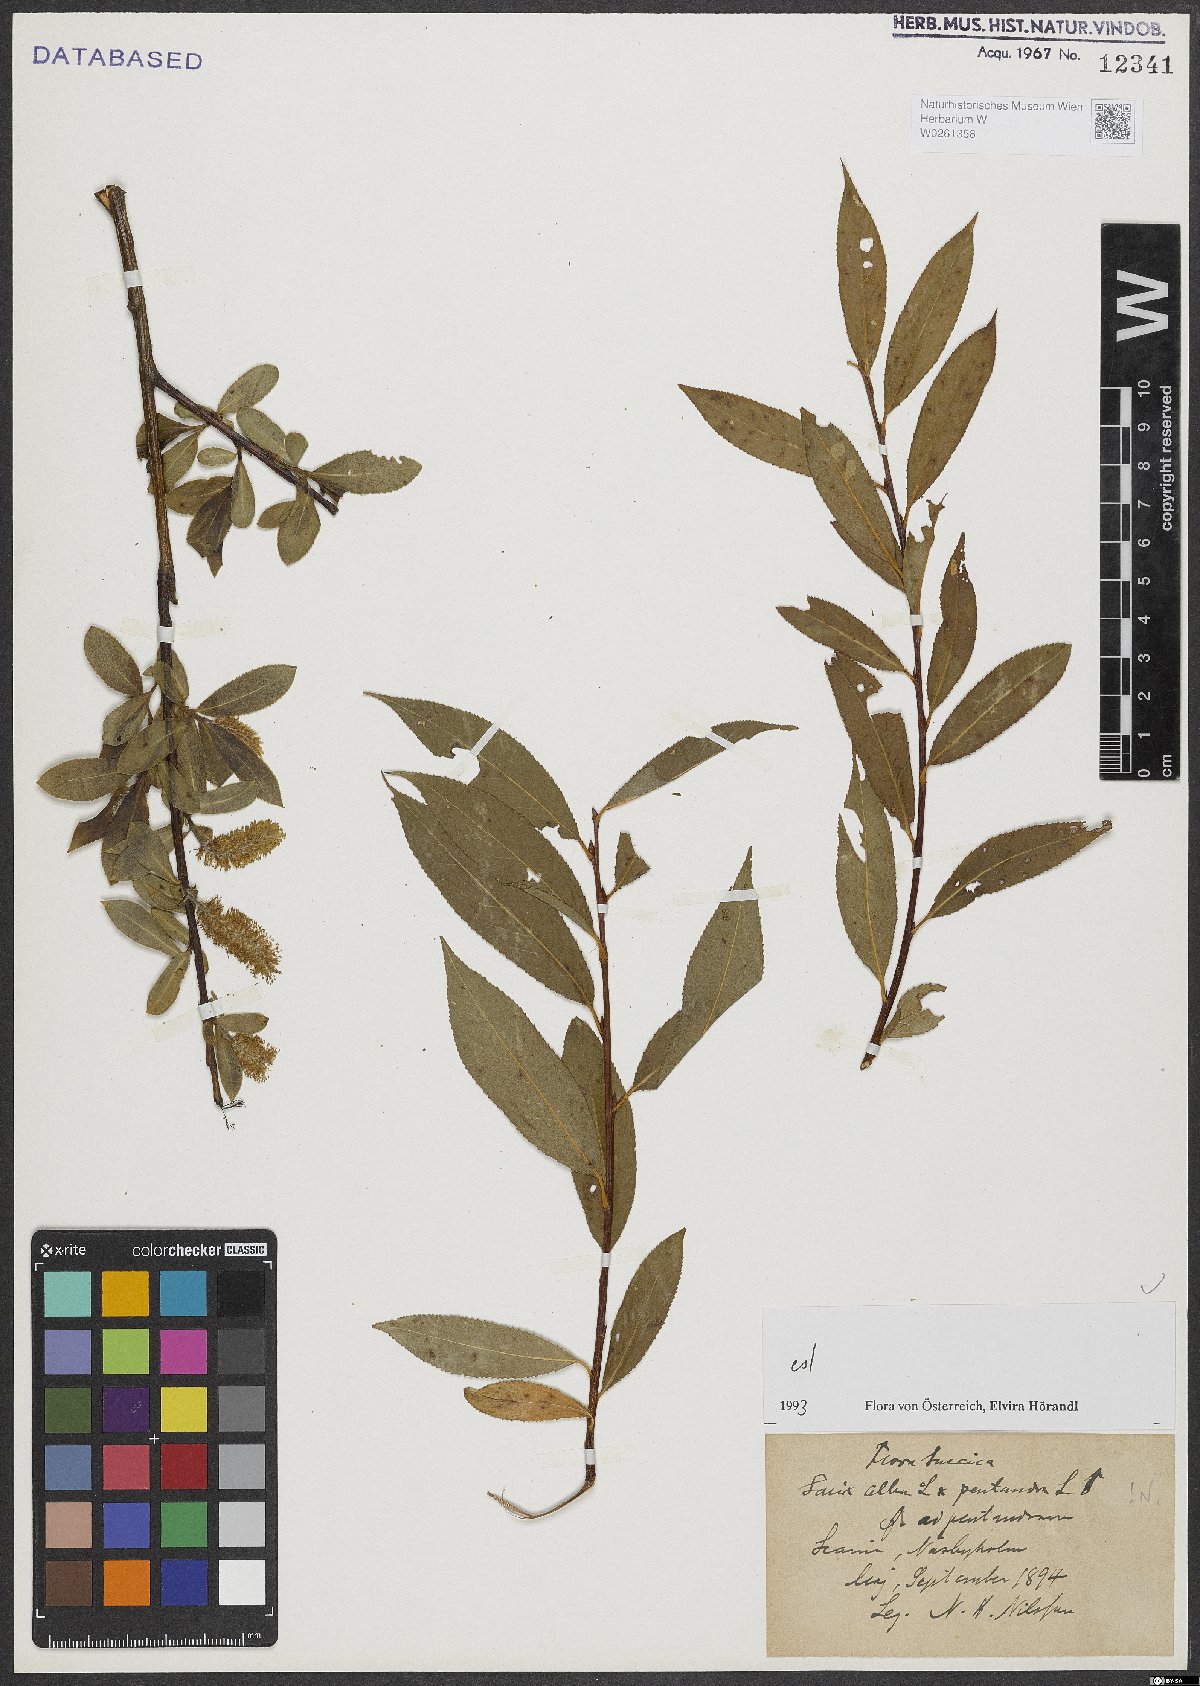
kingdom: Plantae
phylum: Tracheophyta
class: Magnoliopsida
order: Malpighiales
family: Salicaceae
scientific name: Salicaceae
